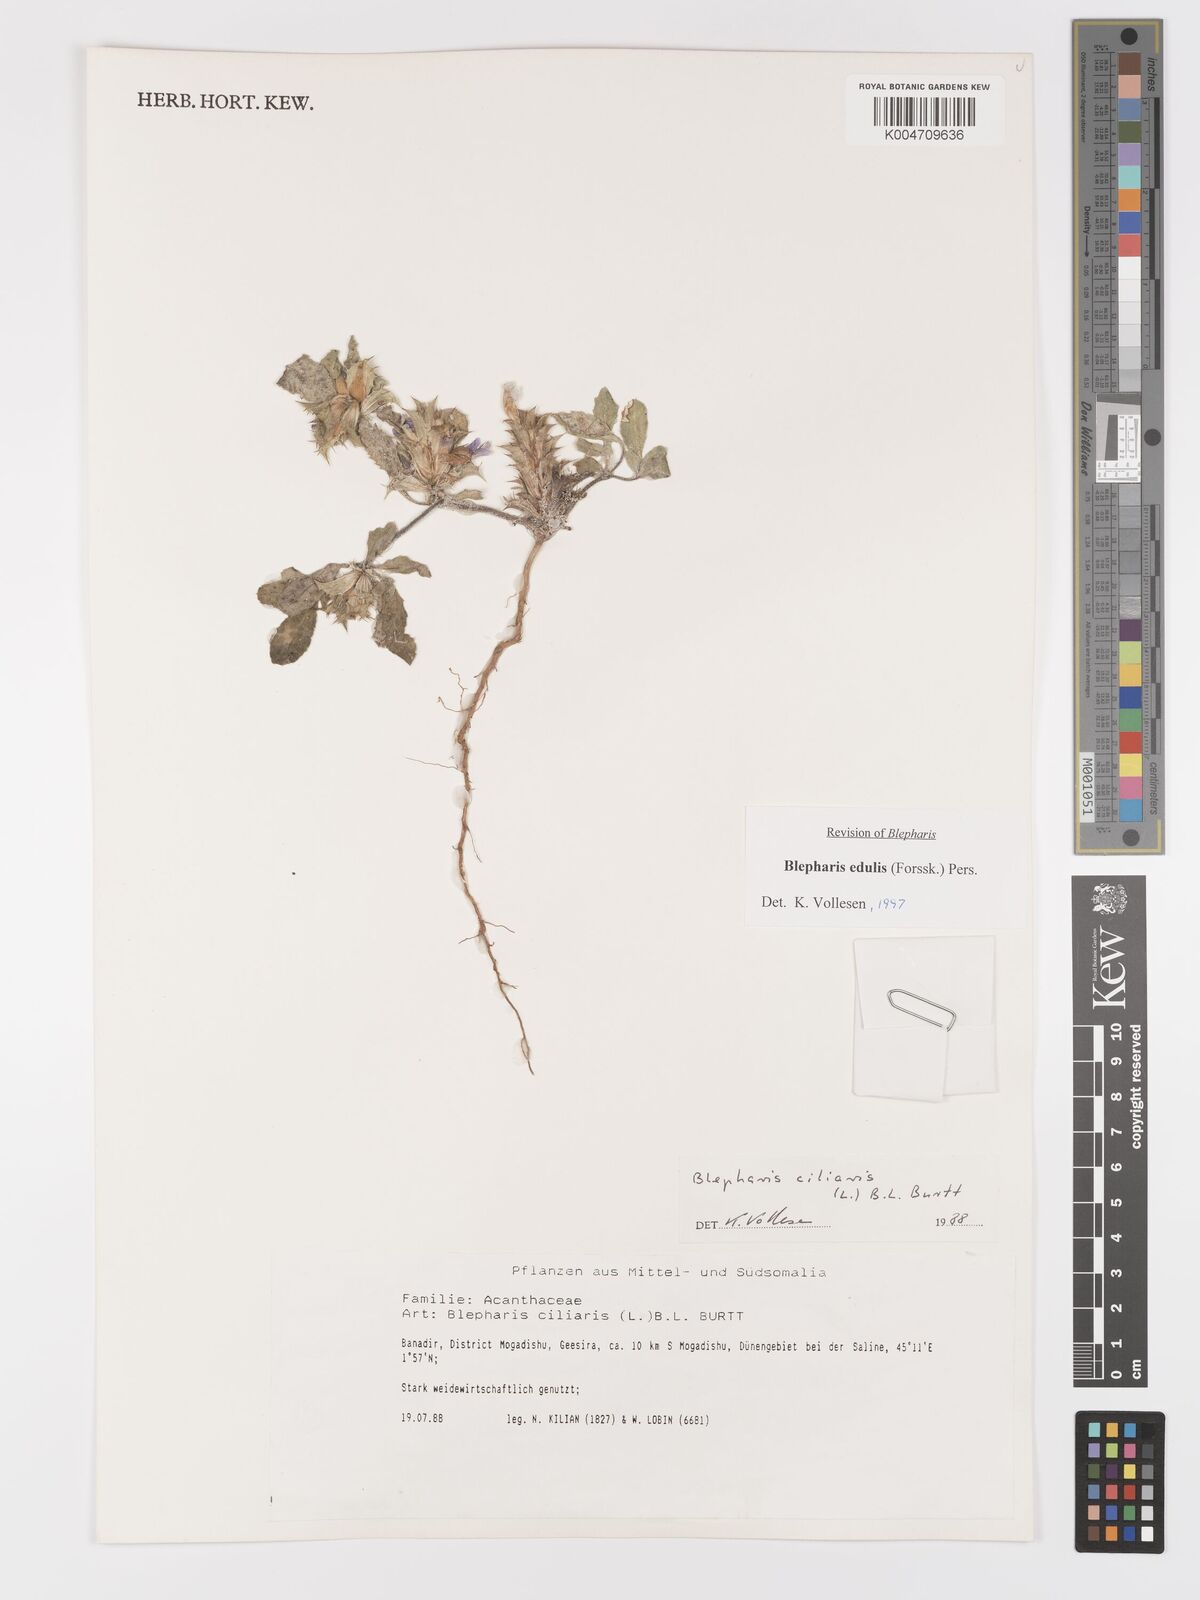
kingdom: Plantae
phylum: Tracheophyta
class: Magnoliopsida
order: Lamiales
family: Acanthaceae
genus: Blepharis
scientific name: Blepharis edulis
